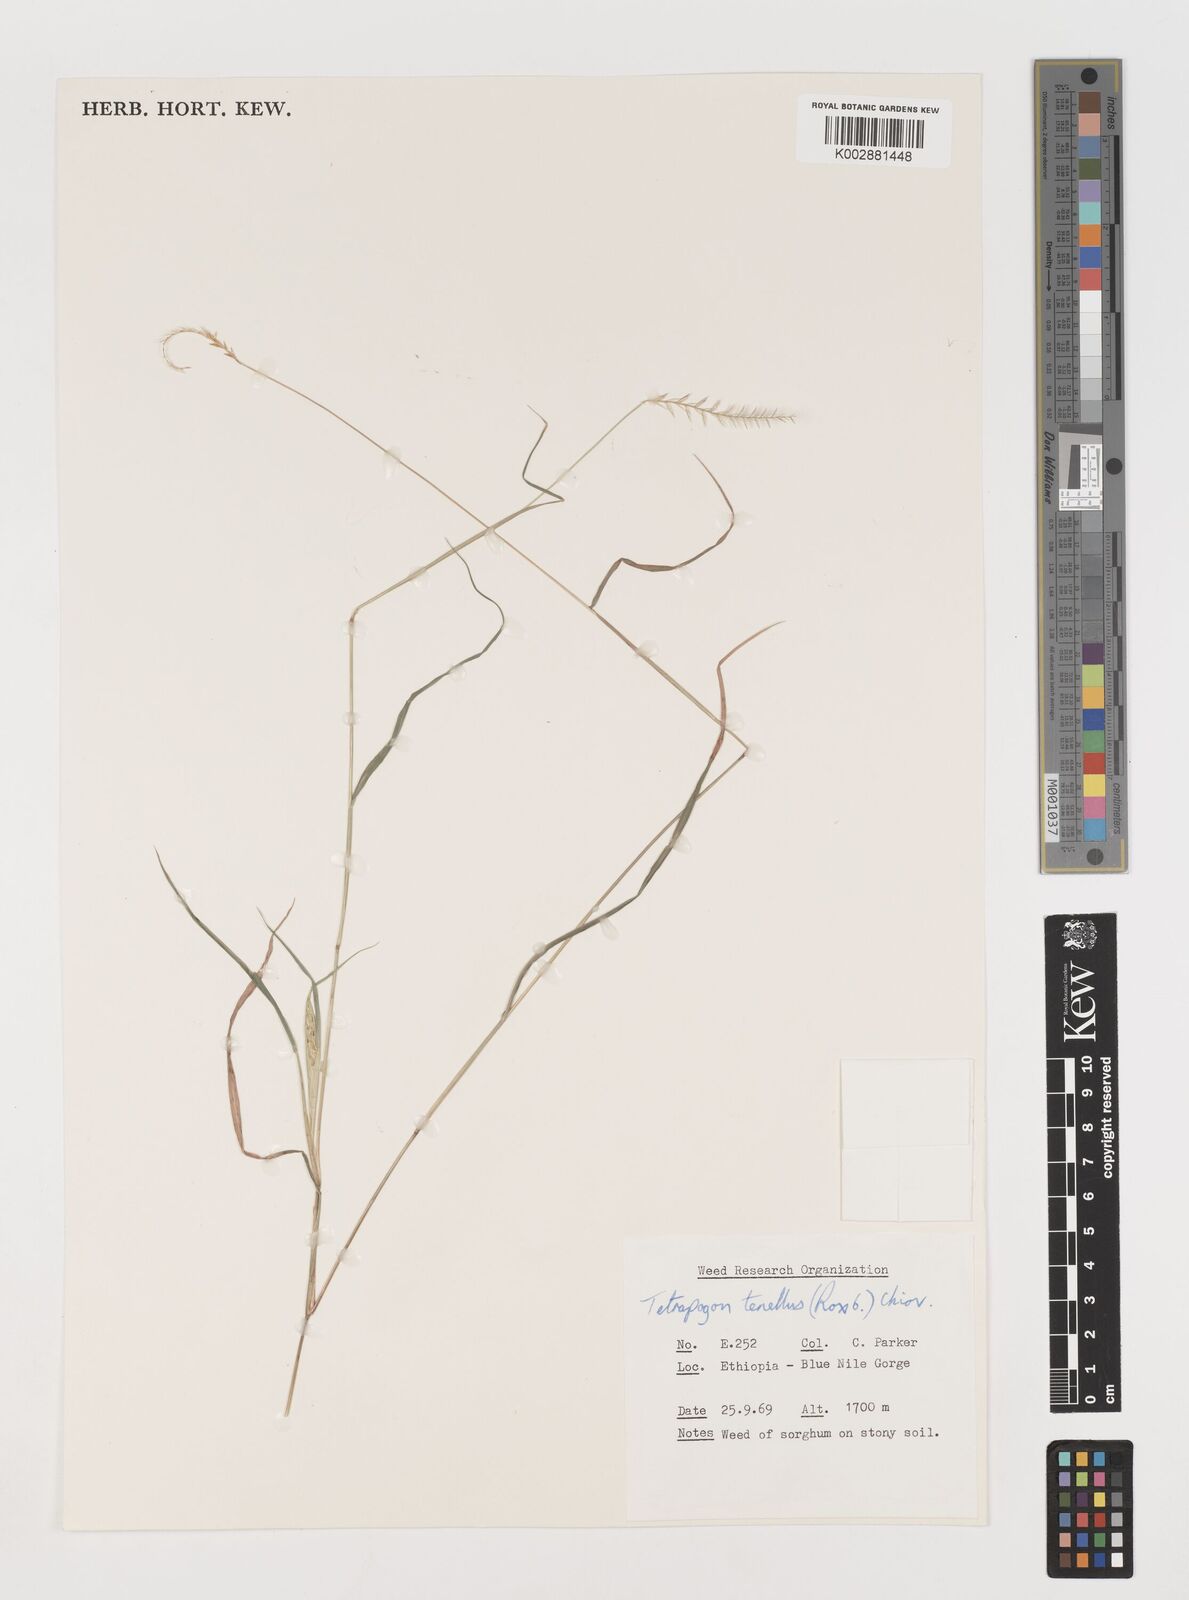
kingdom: Plantae
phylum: Tracheophyta
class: Liliopsida
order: Poales
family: Poaceae
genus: Tetrapogon
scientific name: Tetrapogon tenellus
